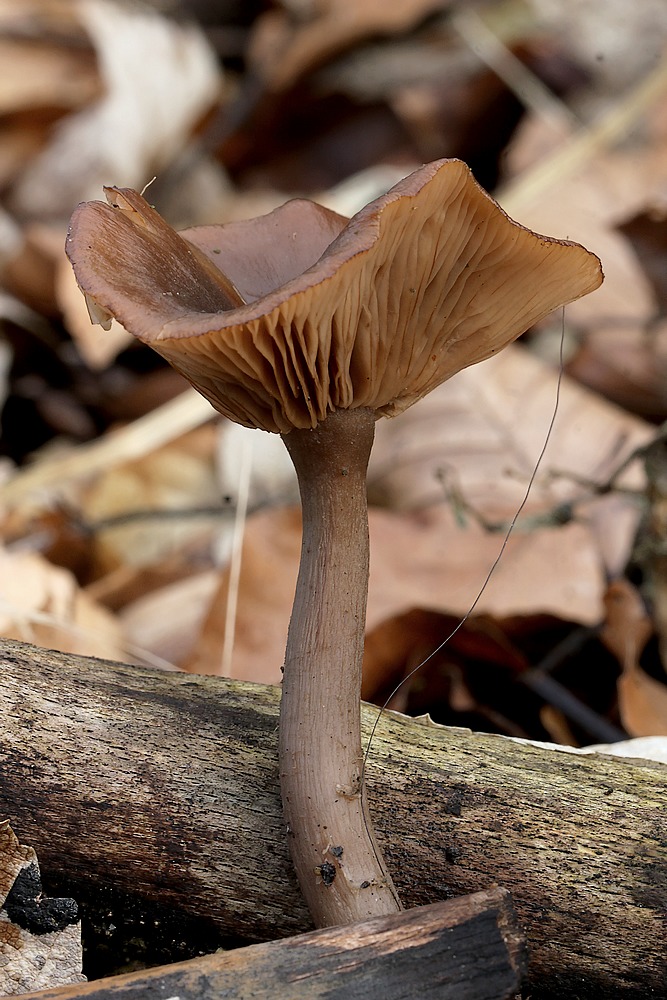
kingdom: Fungi
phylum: Basidiomycota
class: Agaricomycetes
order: Agaricales
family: Pseudoclitocybaceae
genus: Pseudoclitocybe
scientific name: Pseudoclitocybe cyathiformis
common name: almindelig bægertragthat
